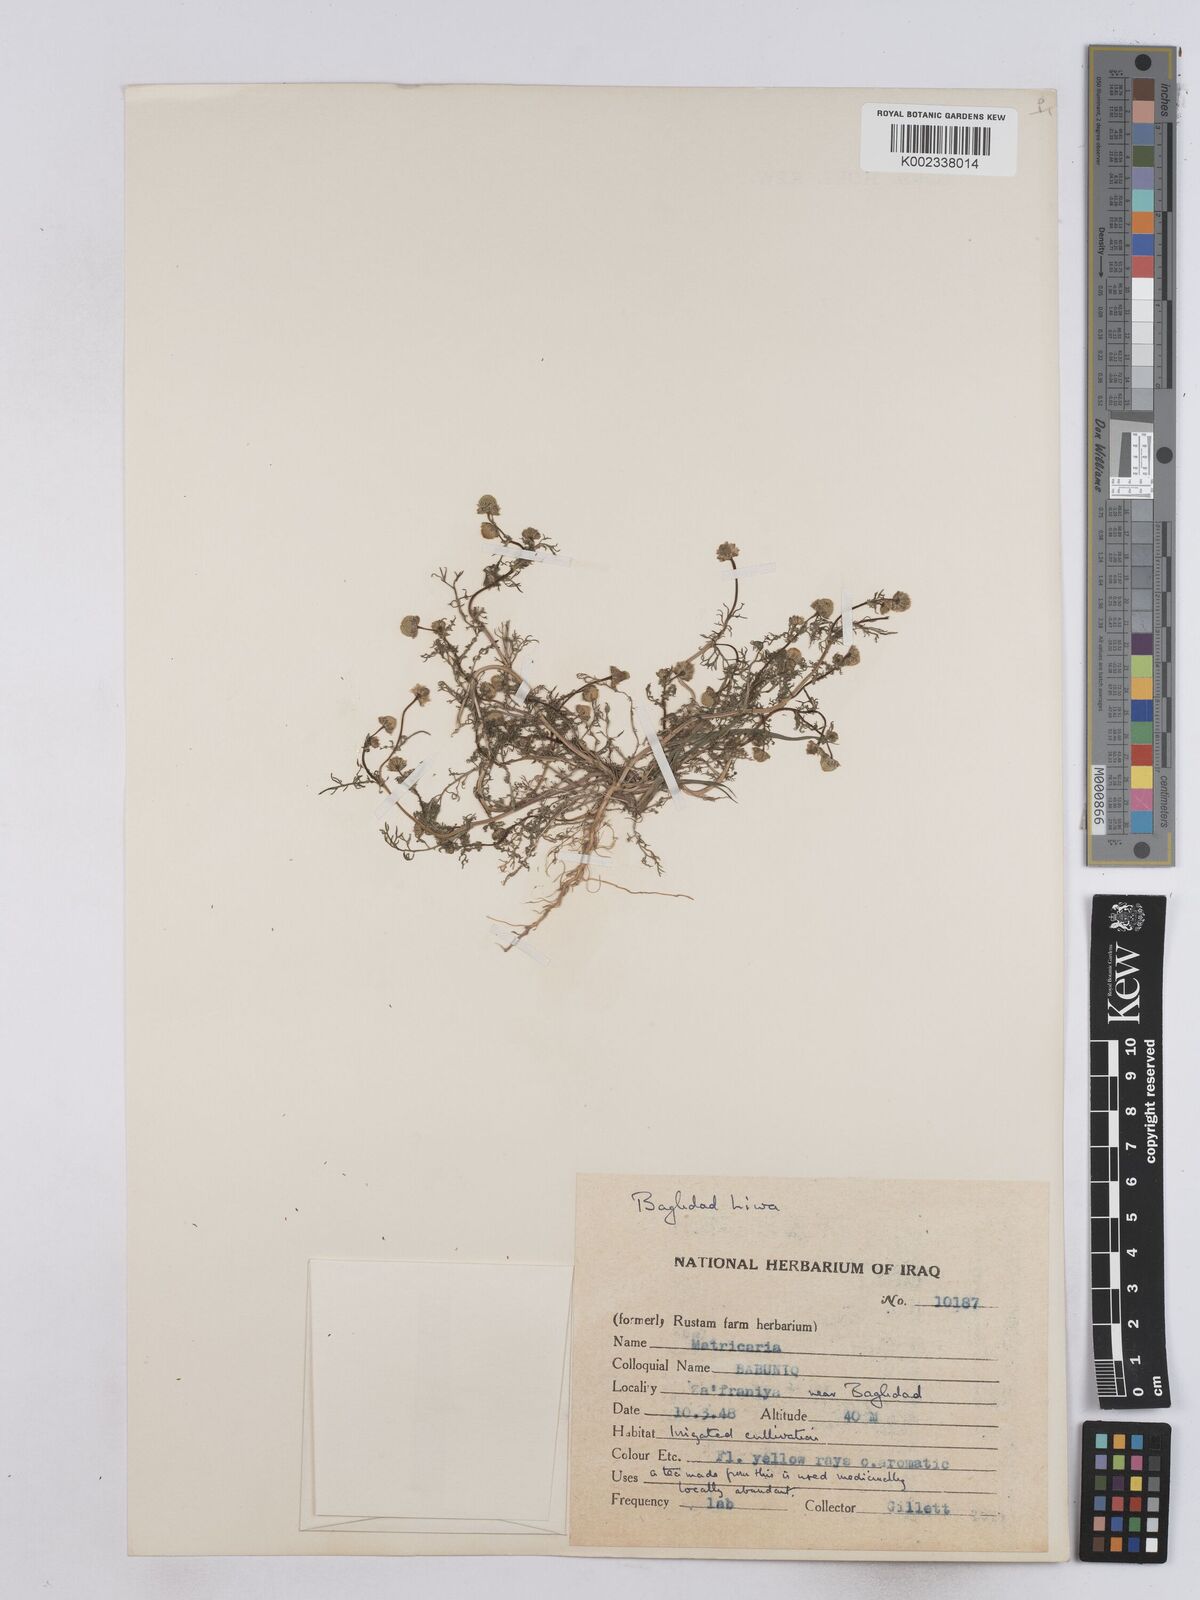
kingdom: Plantae
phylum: Tracheophyta
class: Magnoliopsida
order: Asterales
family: Asteraceae
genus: Matricaria
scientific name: Matricaria aurea
